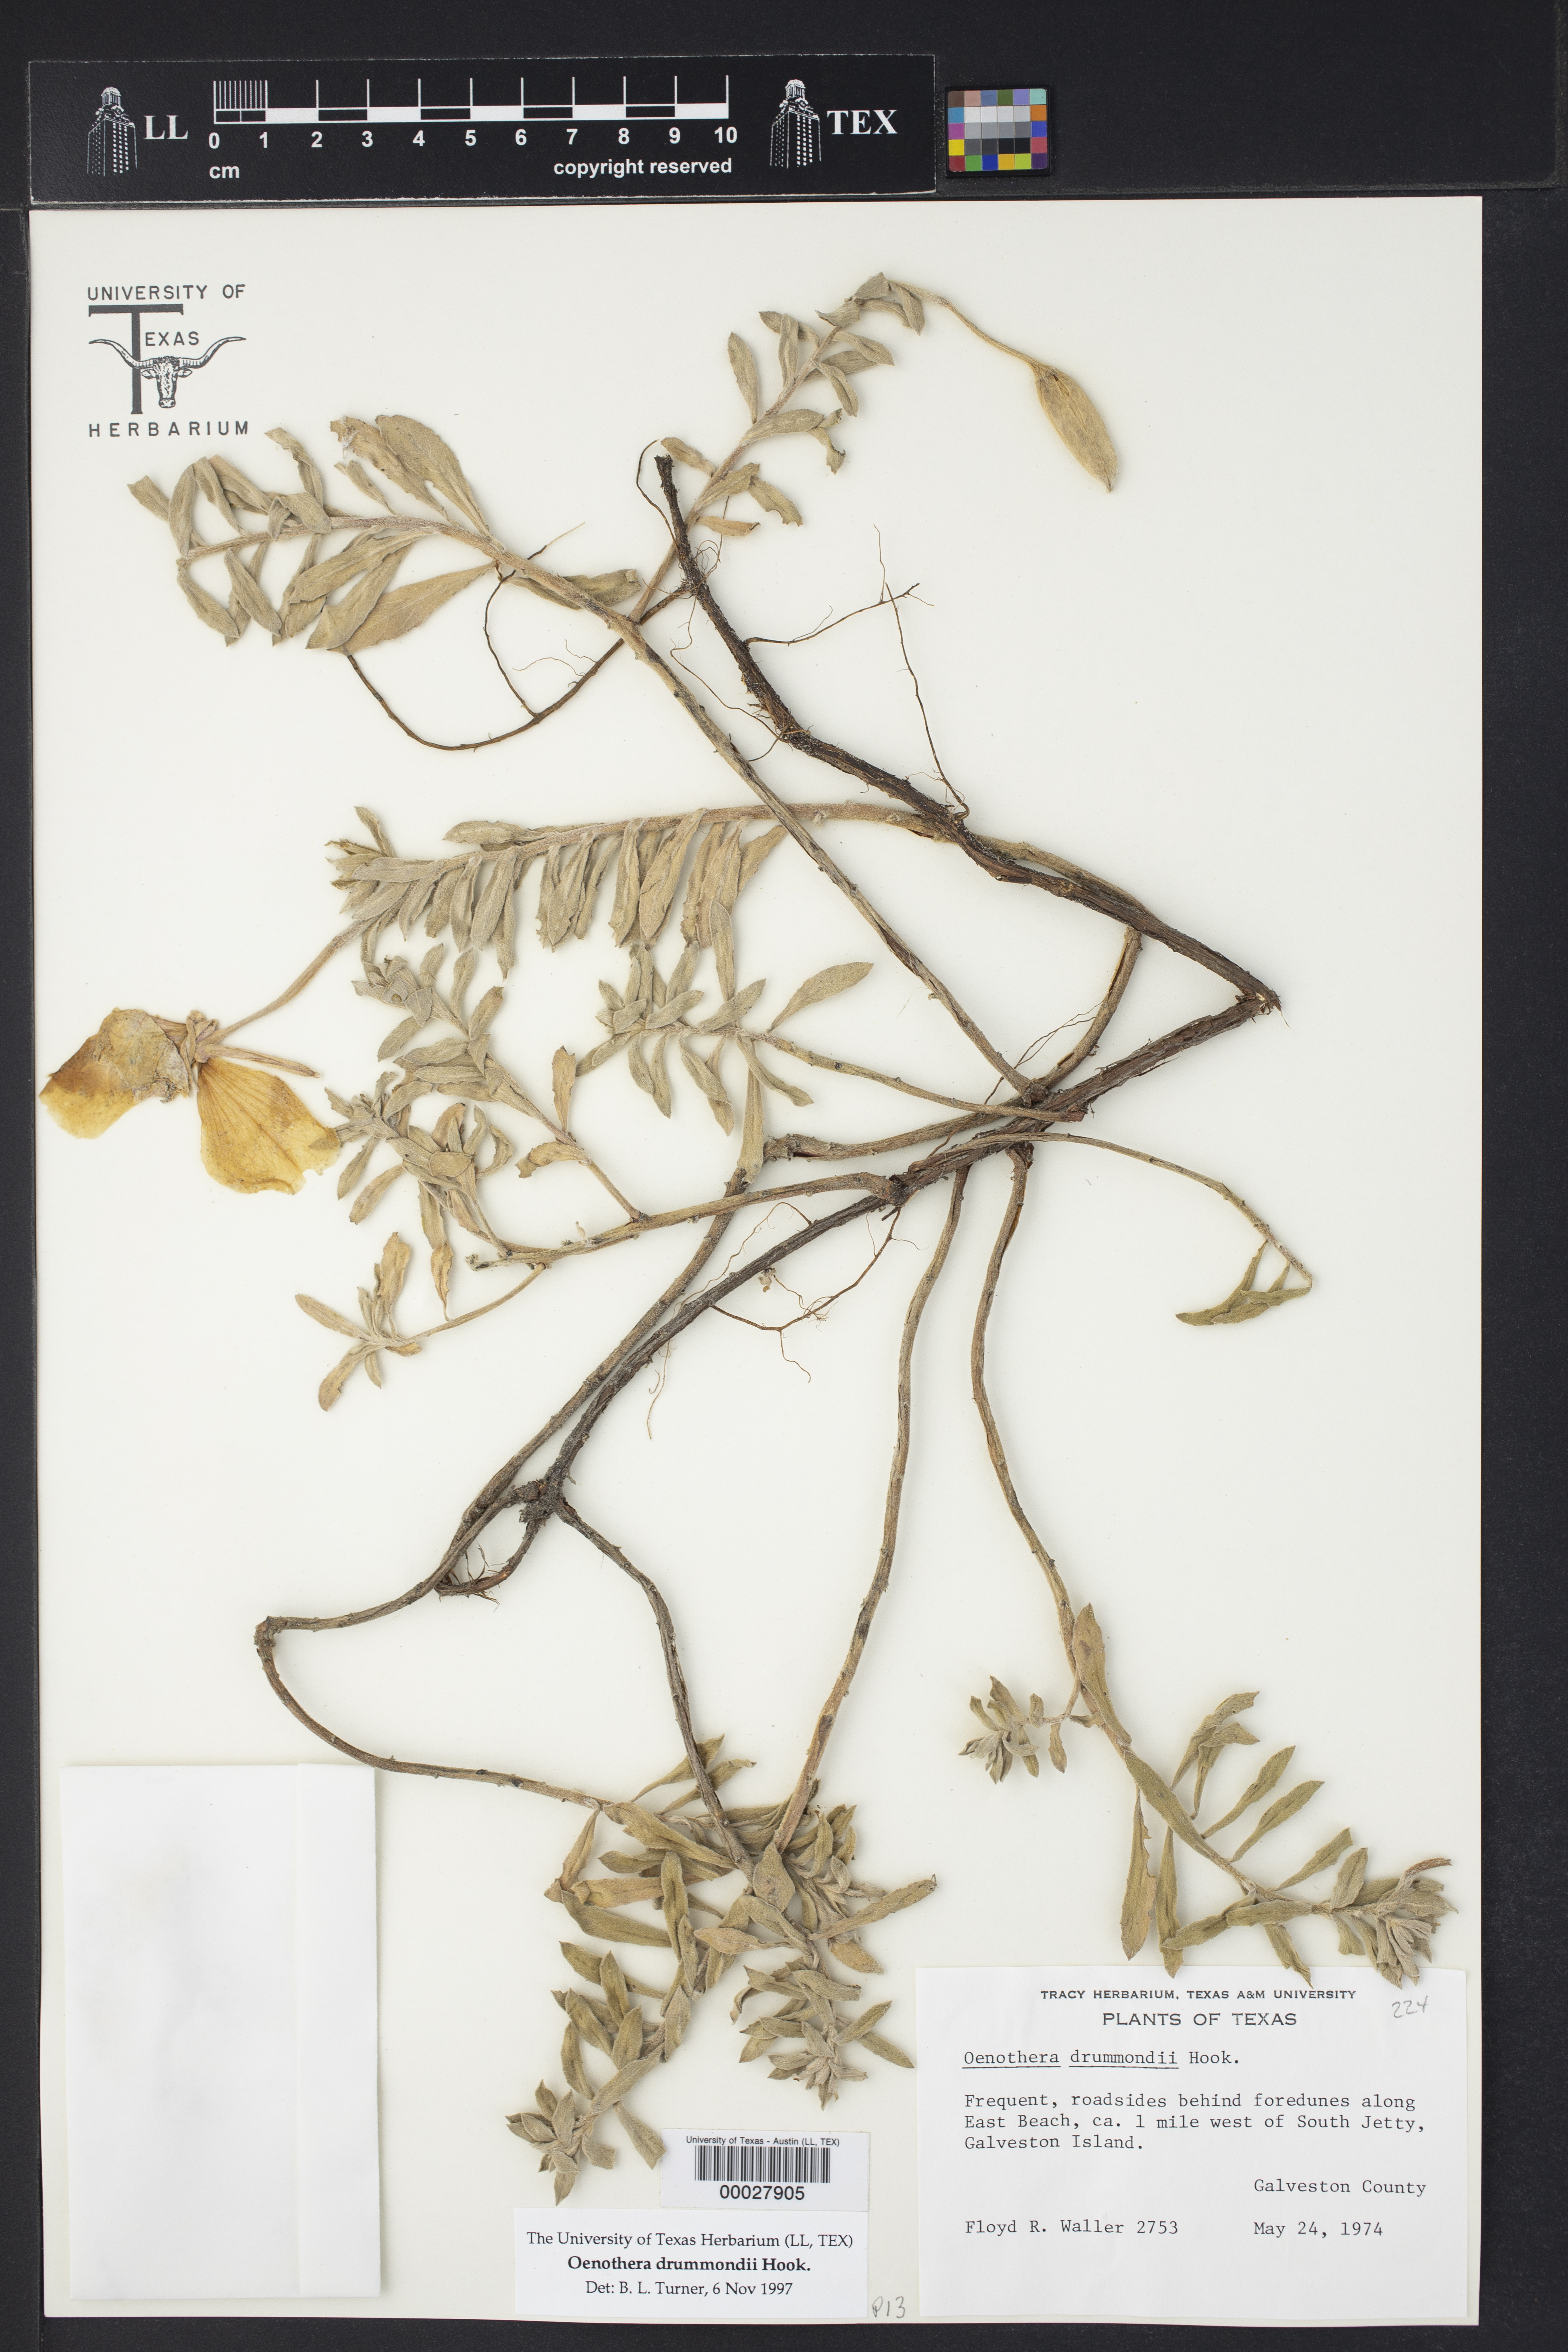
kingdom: Plantae
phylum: Tracheophyta
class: Magnoliopsida
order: Myrtales
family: Onagraceae
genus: Oenothera
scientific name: Oenothera drummondii
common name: Beach evening-primrose
